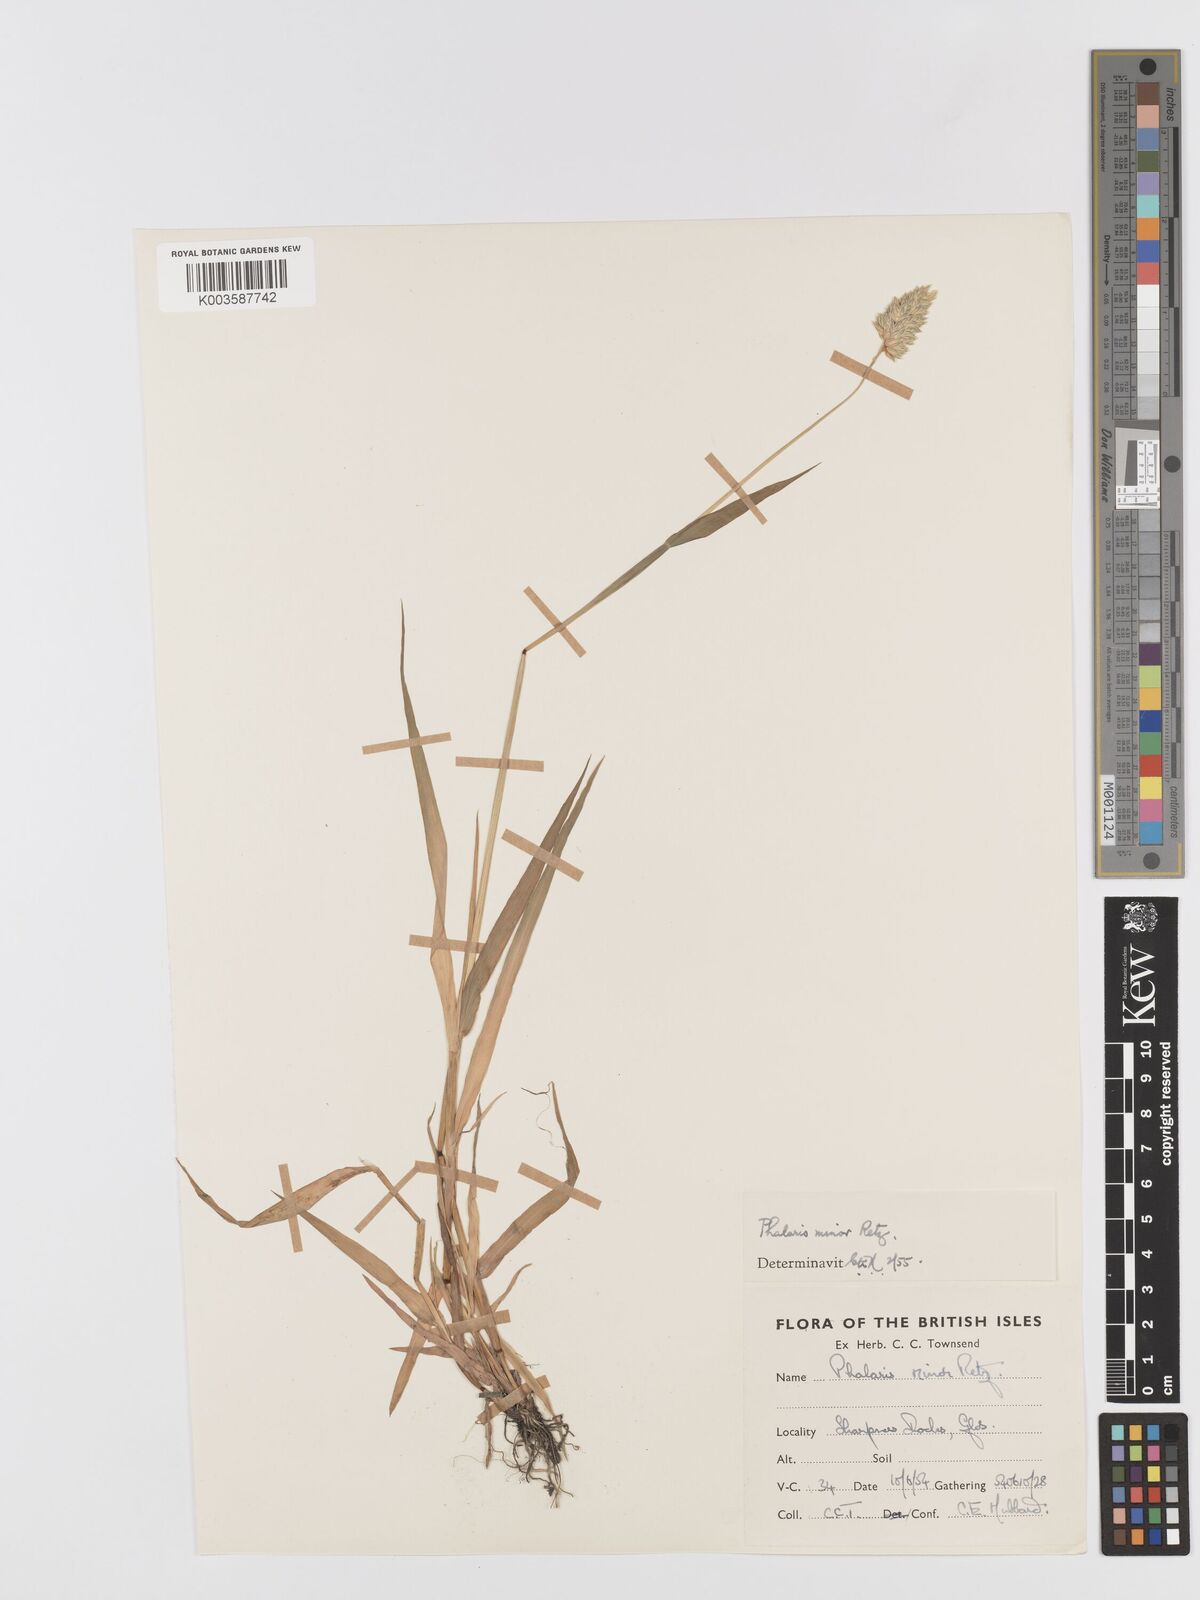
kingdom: Plantae
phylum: Tracheophyta
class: Liliopsida
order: Poales
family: Poaceae
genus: Phalaris
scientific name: Phalaris minor
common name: Littleseed canarygrass
